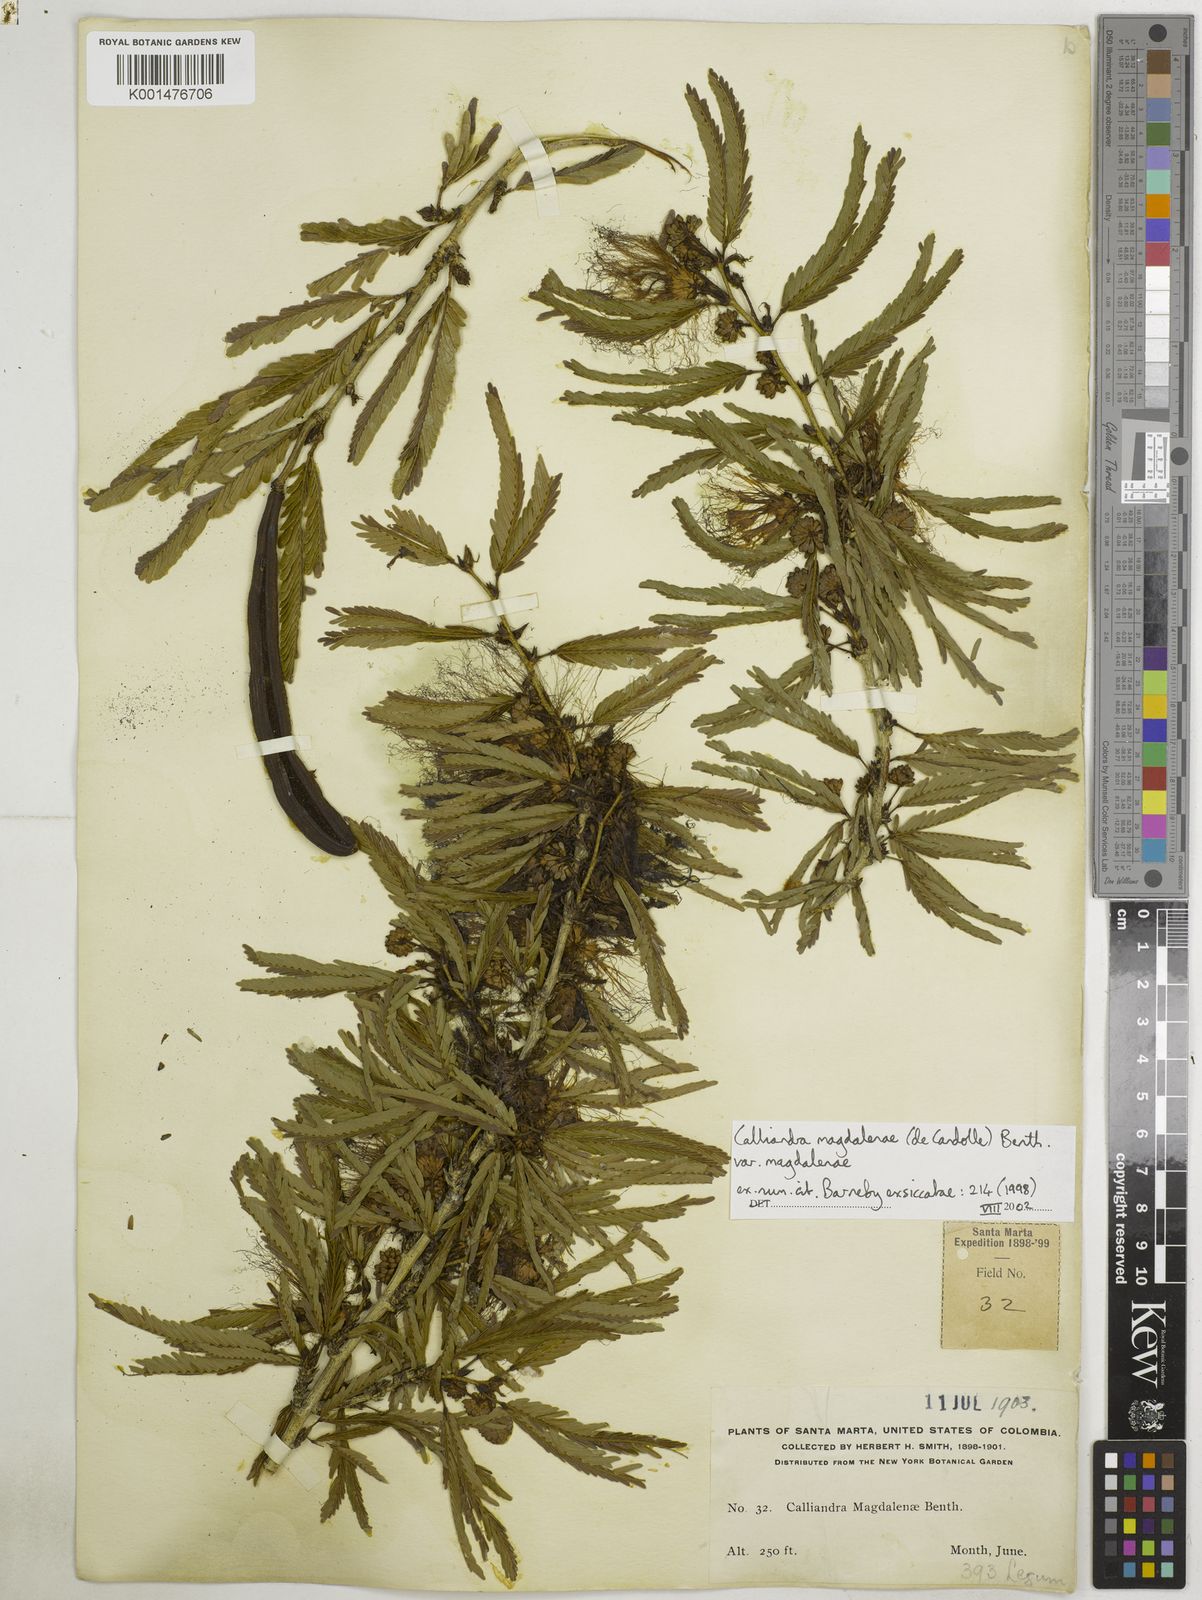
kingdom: Plantae
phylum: Tracheophyta
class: Magnoliopsida
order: Fabales
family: Fabaceae
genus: Calliandra
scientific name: Calliandra magdalenae
